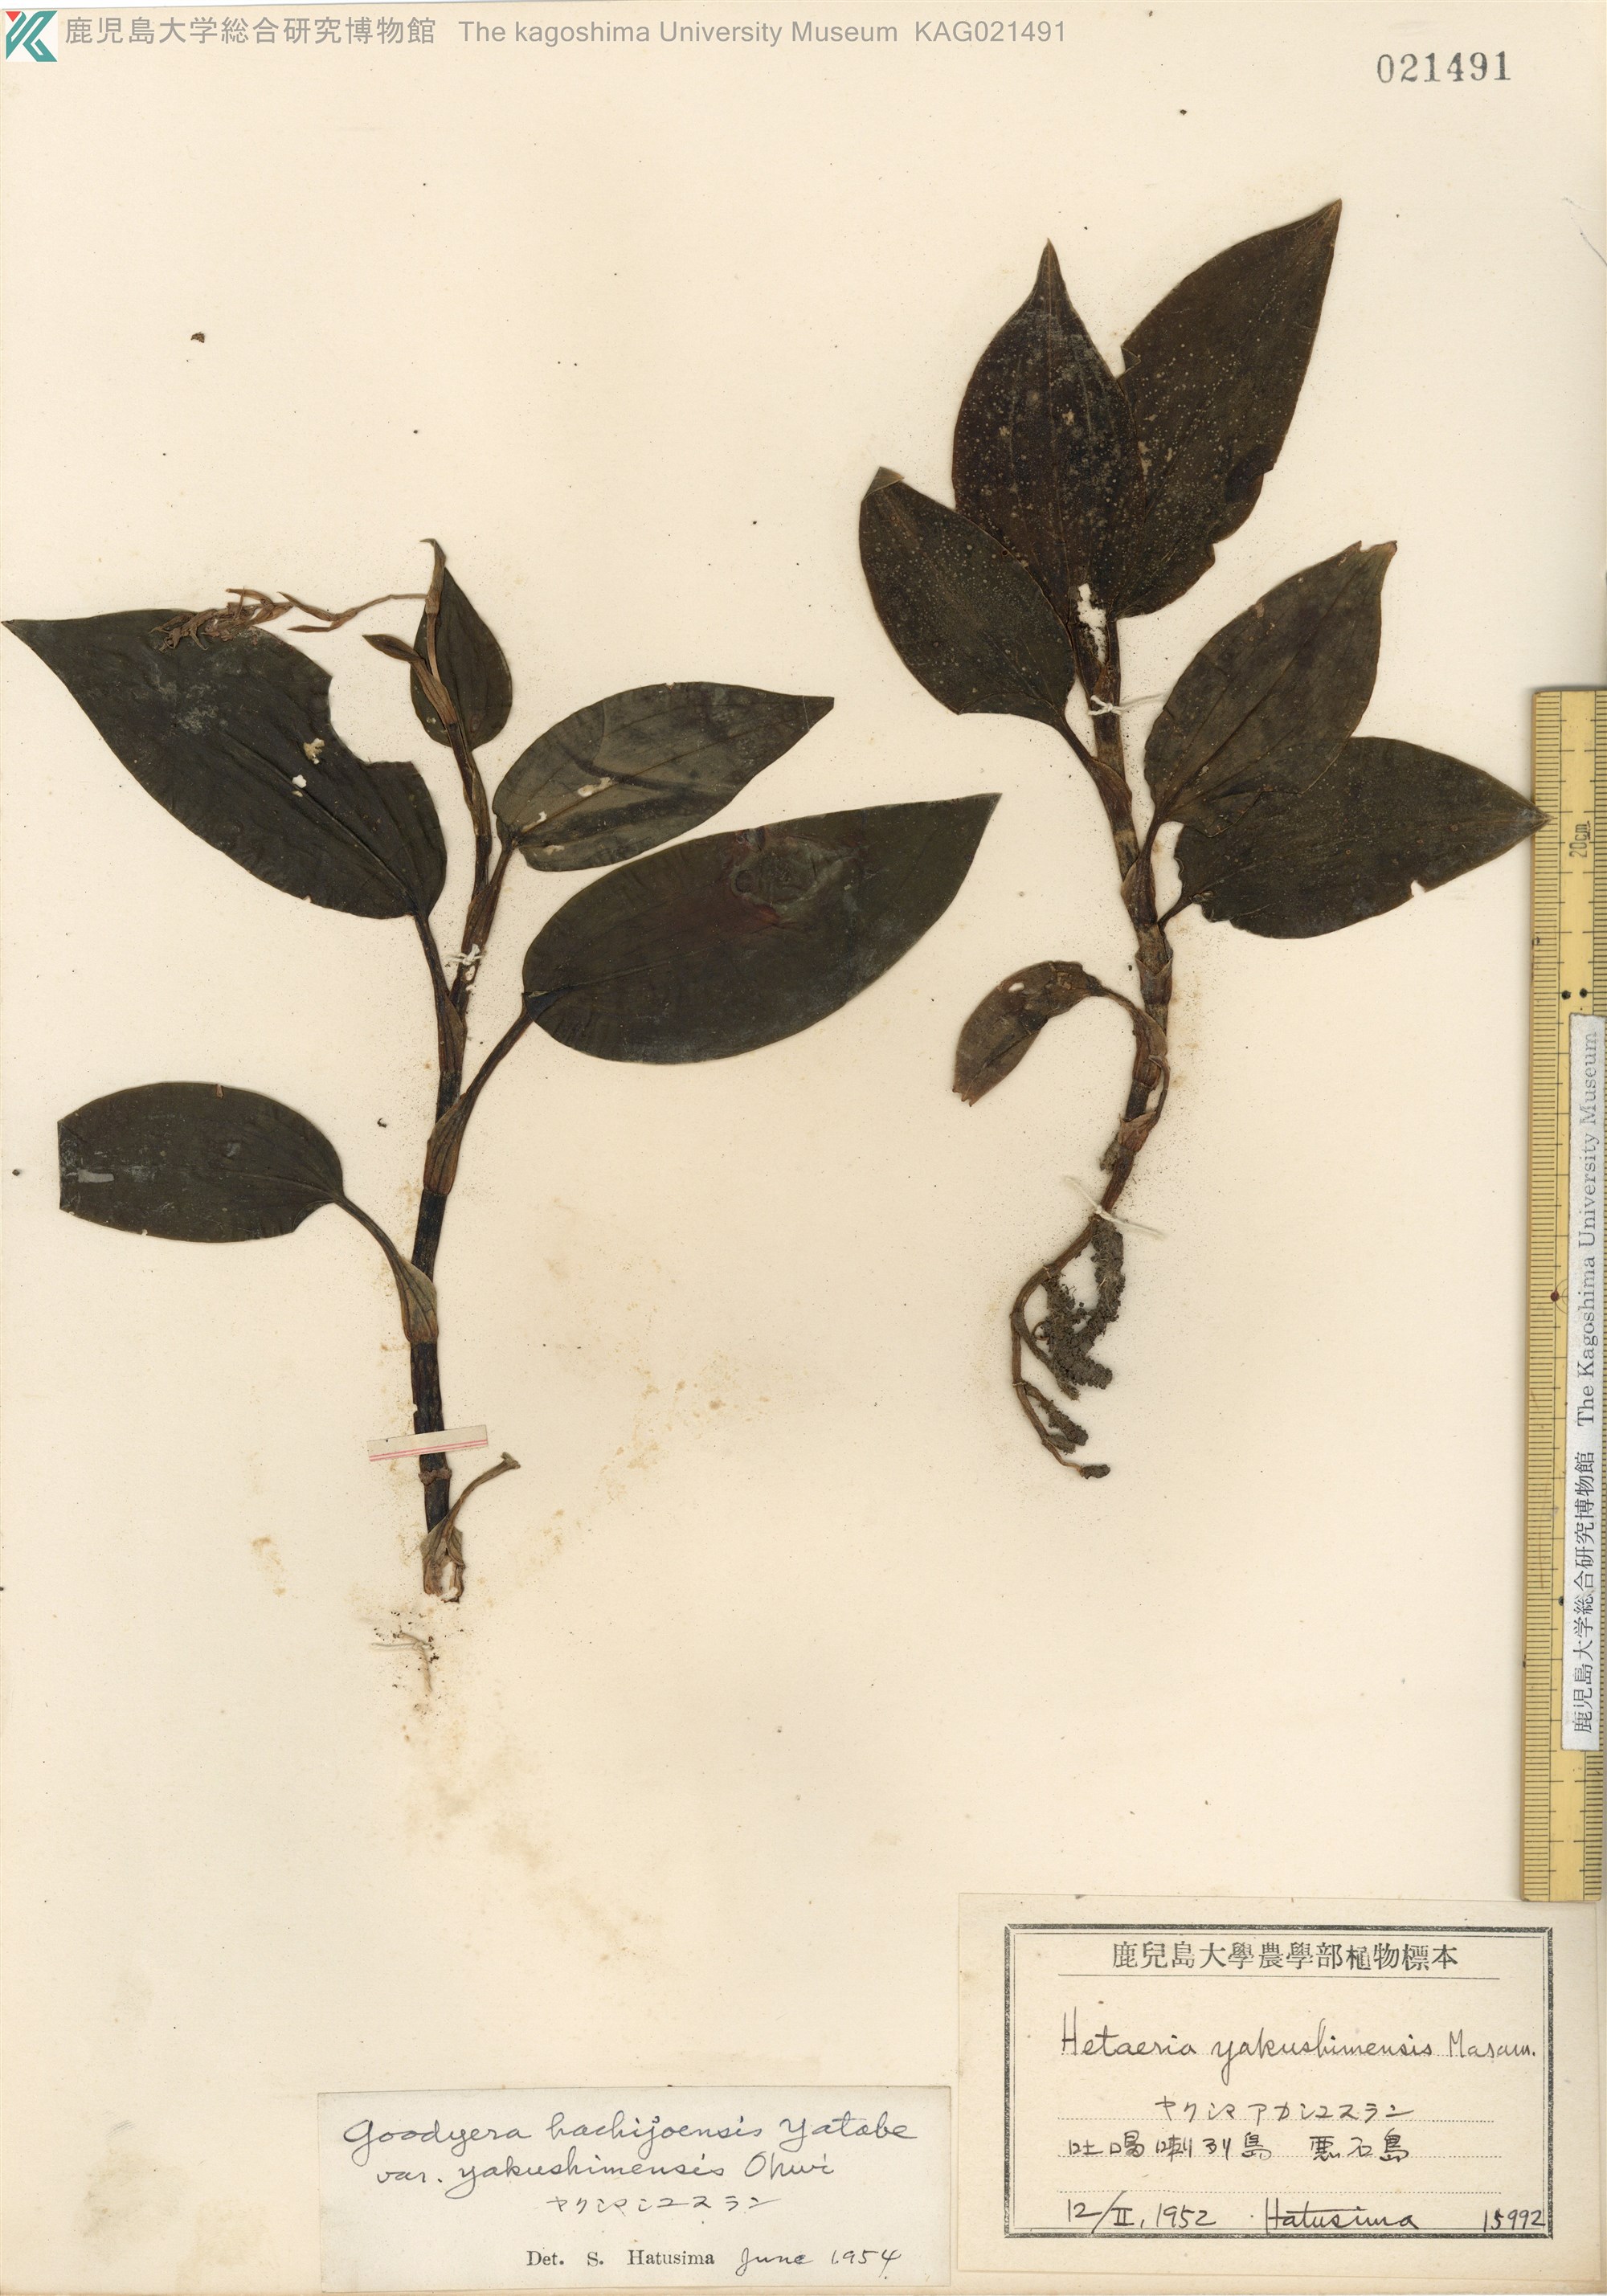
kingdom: Plantae
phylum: Tracheophyta
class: Liliopsida
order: Asparagales
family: Orchidaceae
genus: Goodyera
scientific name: Goodyera hachijoensis
